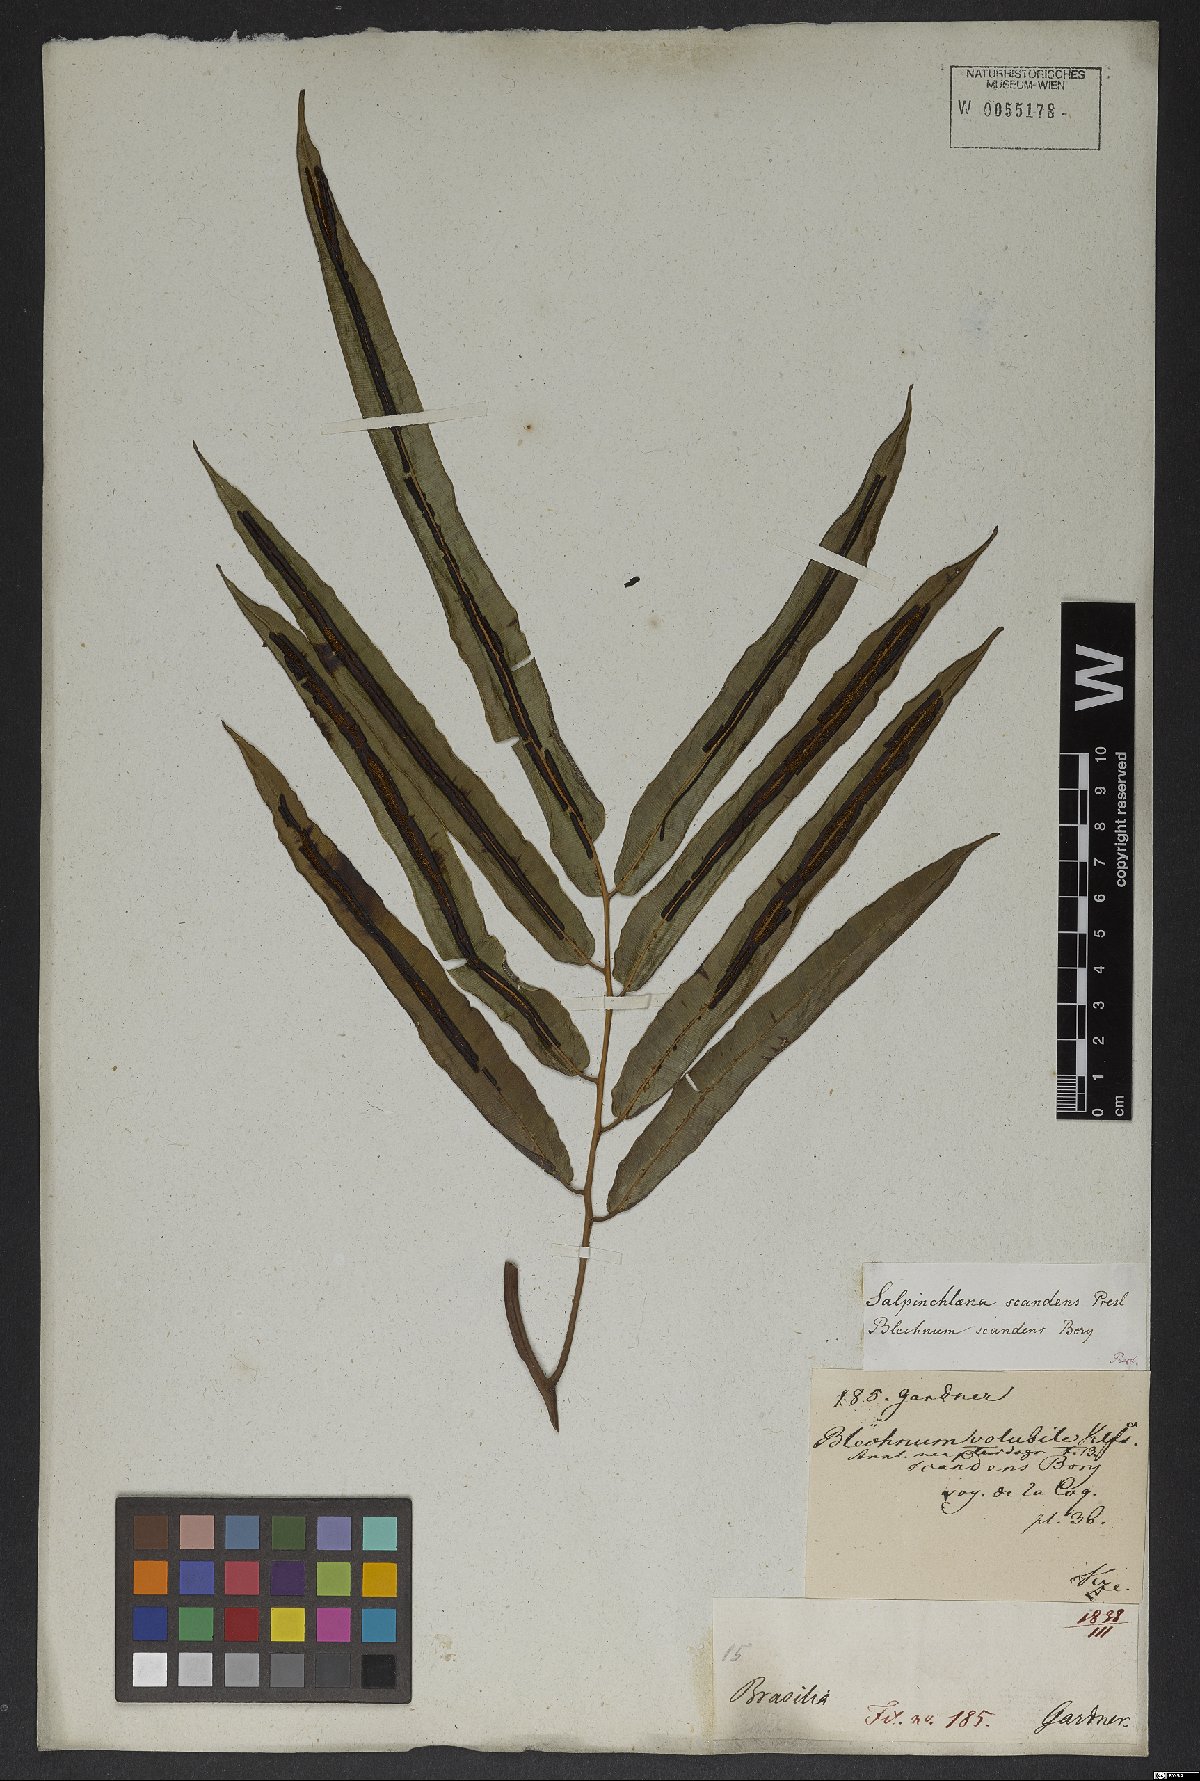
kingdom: Plantae
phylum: Tracheophyta
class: Polypodiopsida
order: Polypodiales
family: Blechnaceae
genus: Salpichlaena
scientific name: Salpichlaena volubilis
